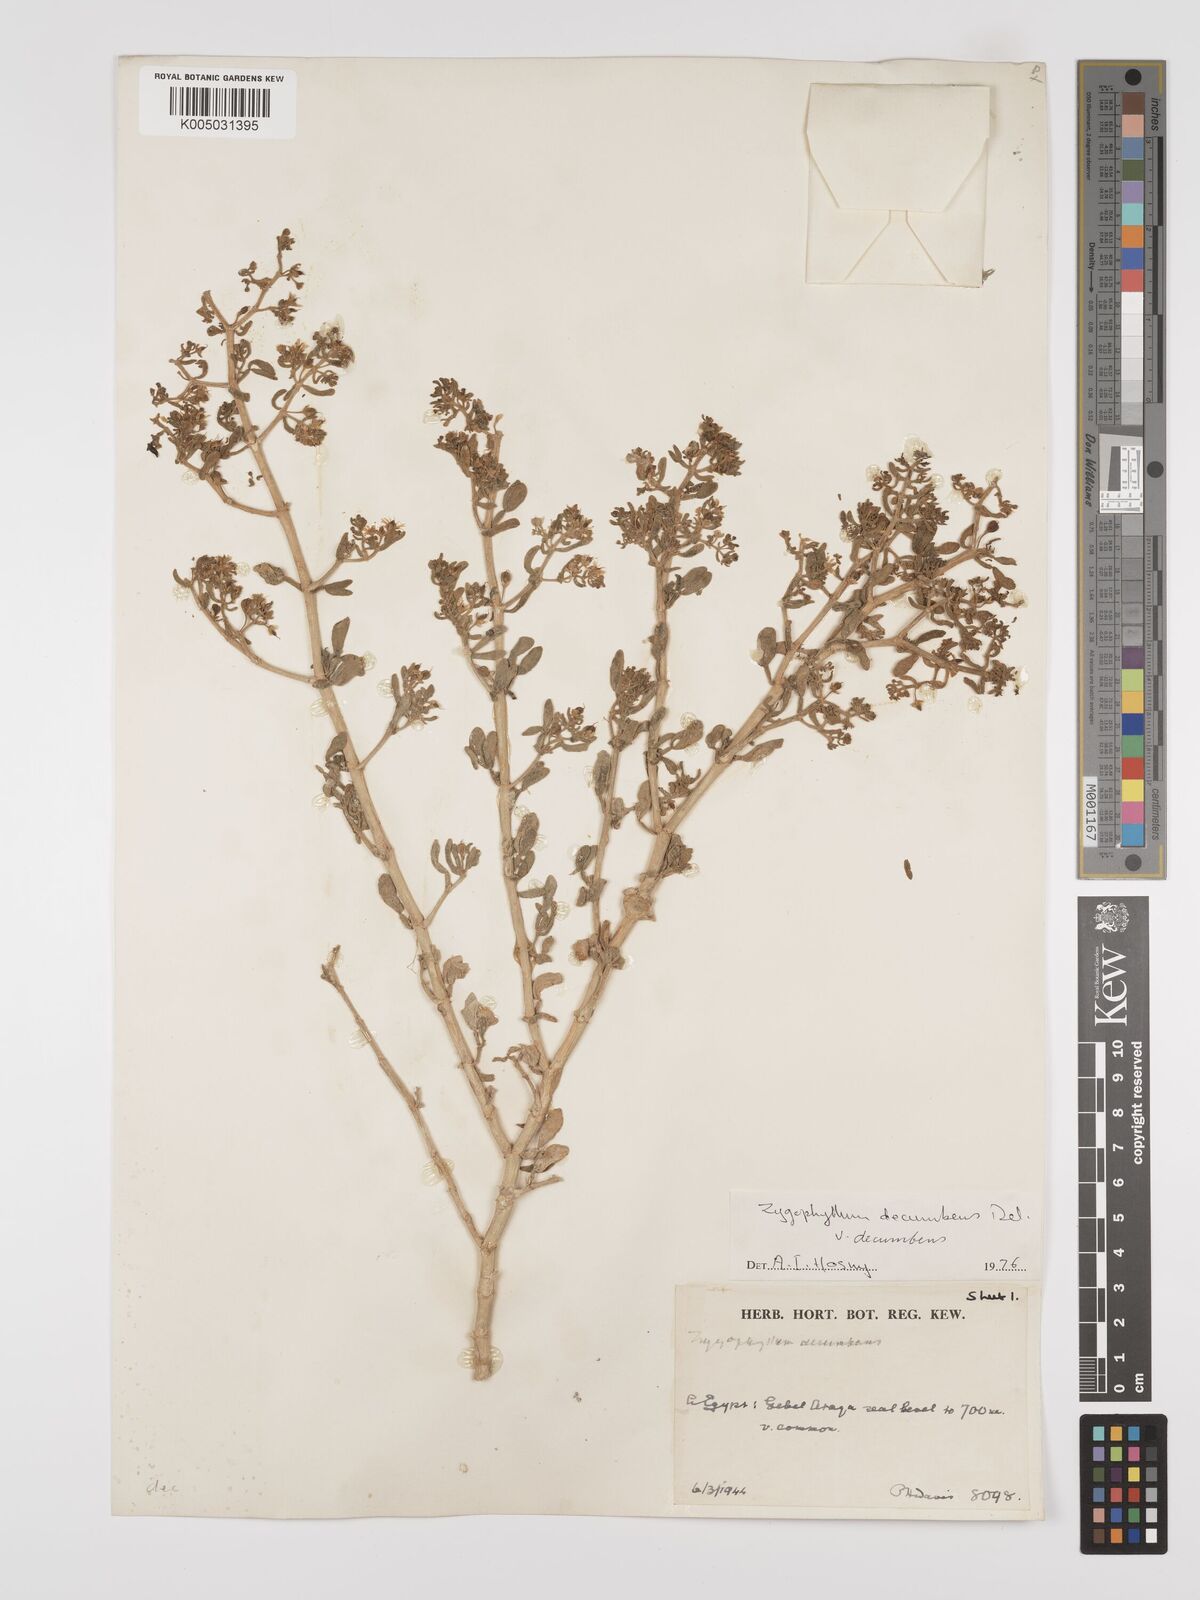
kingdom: Plantae
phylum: Tracheophyta
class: Magnoliopsida
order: Zygophyllales
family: Zygophyllaceae
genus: Tetraena
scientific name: Tetraena decumbens
